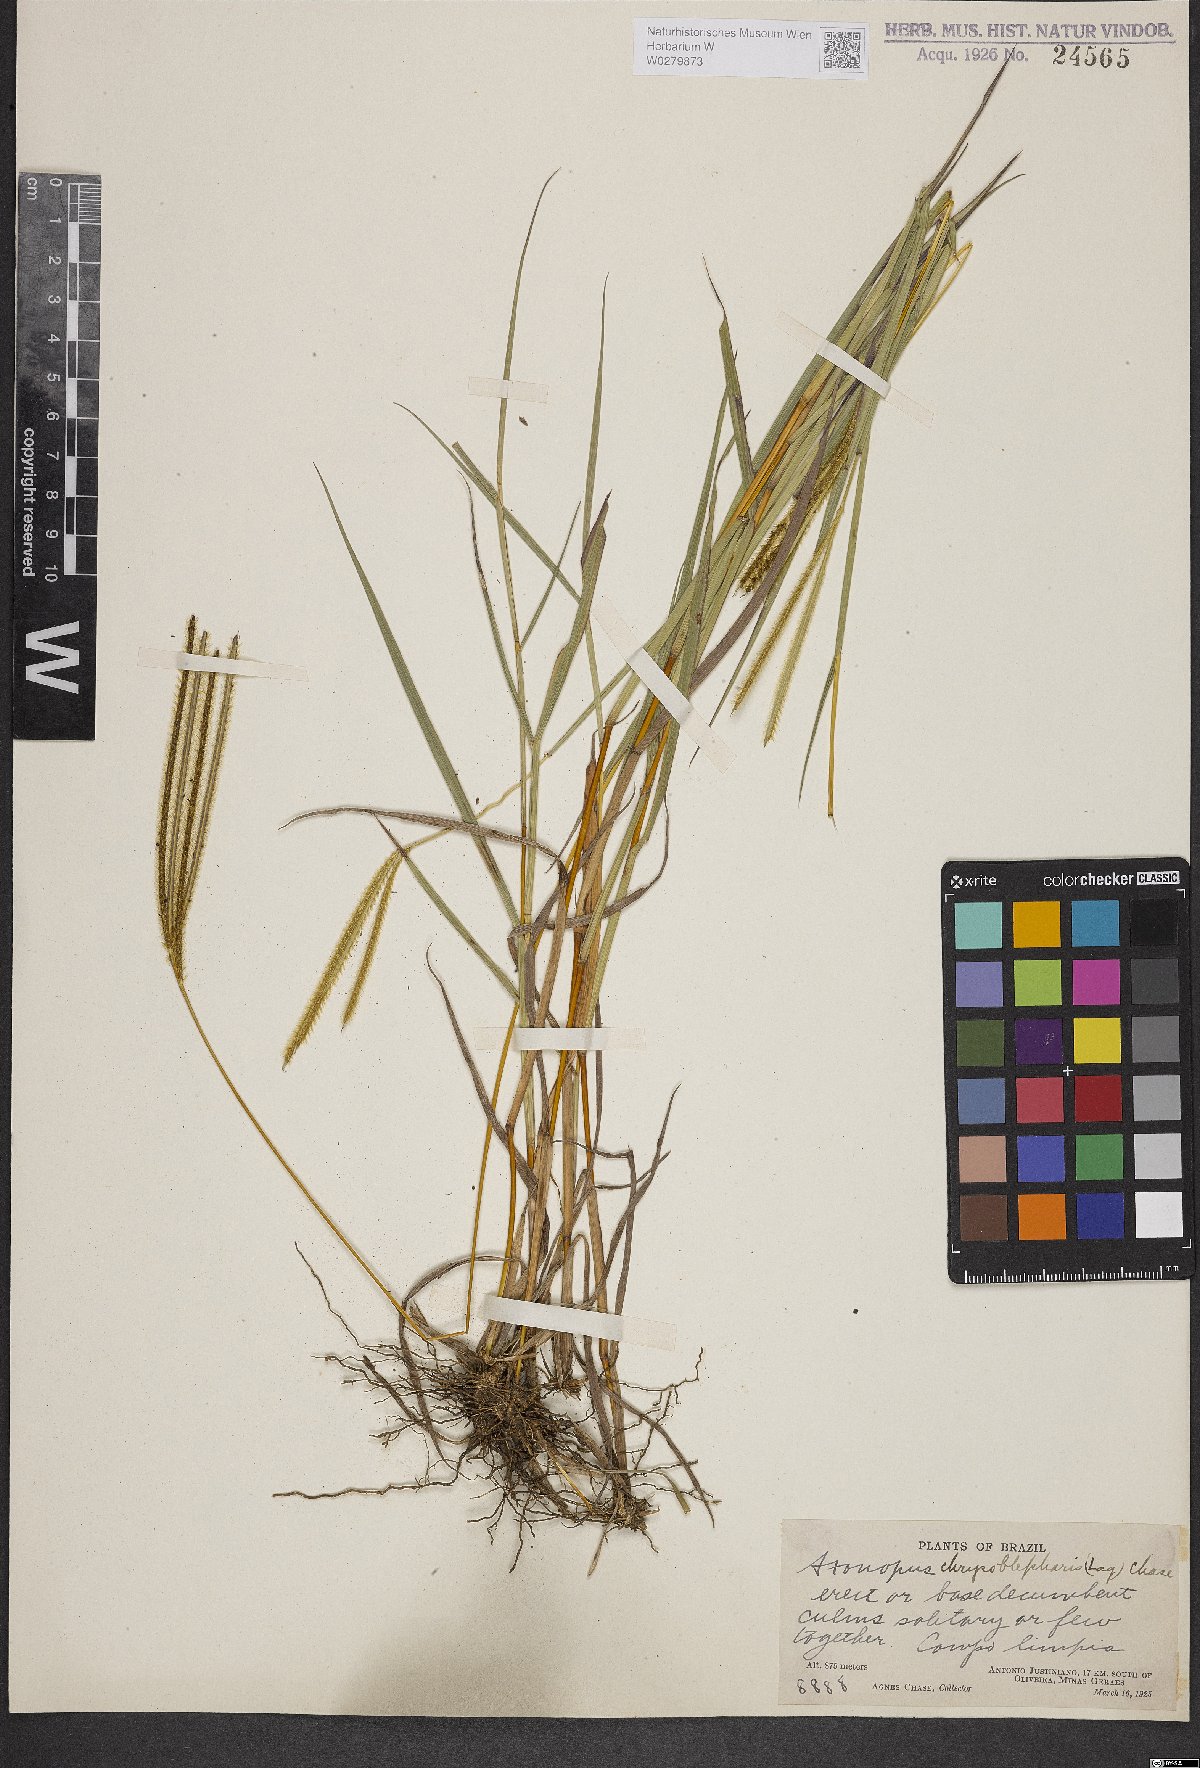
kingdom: Plantae
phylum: Tracheophyta
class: Liliopsida
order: Poales
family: Poaceae
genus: Axonopus
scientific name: Axonopus chrysoblepharis
